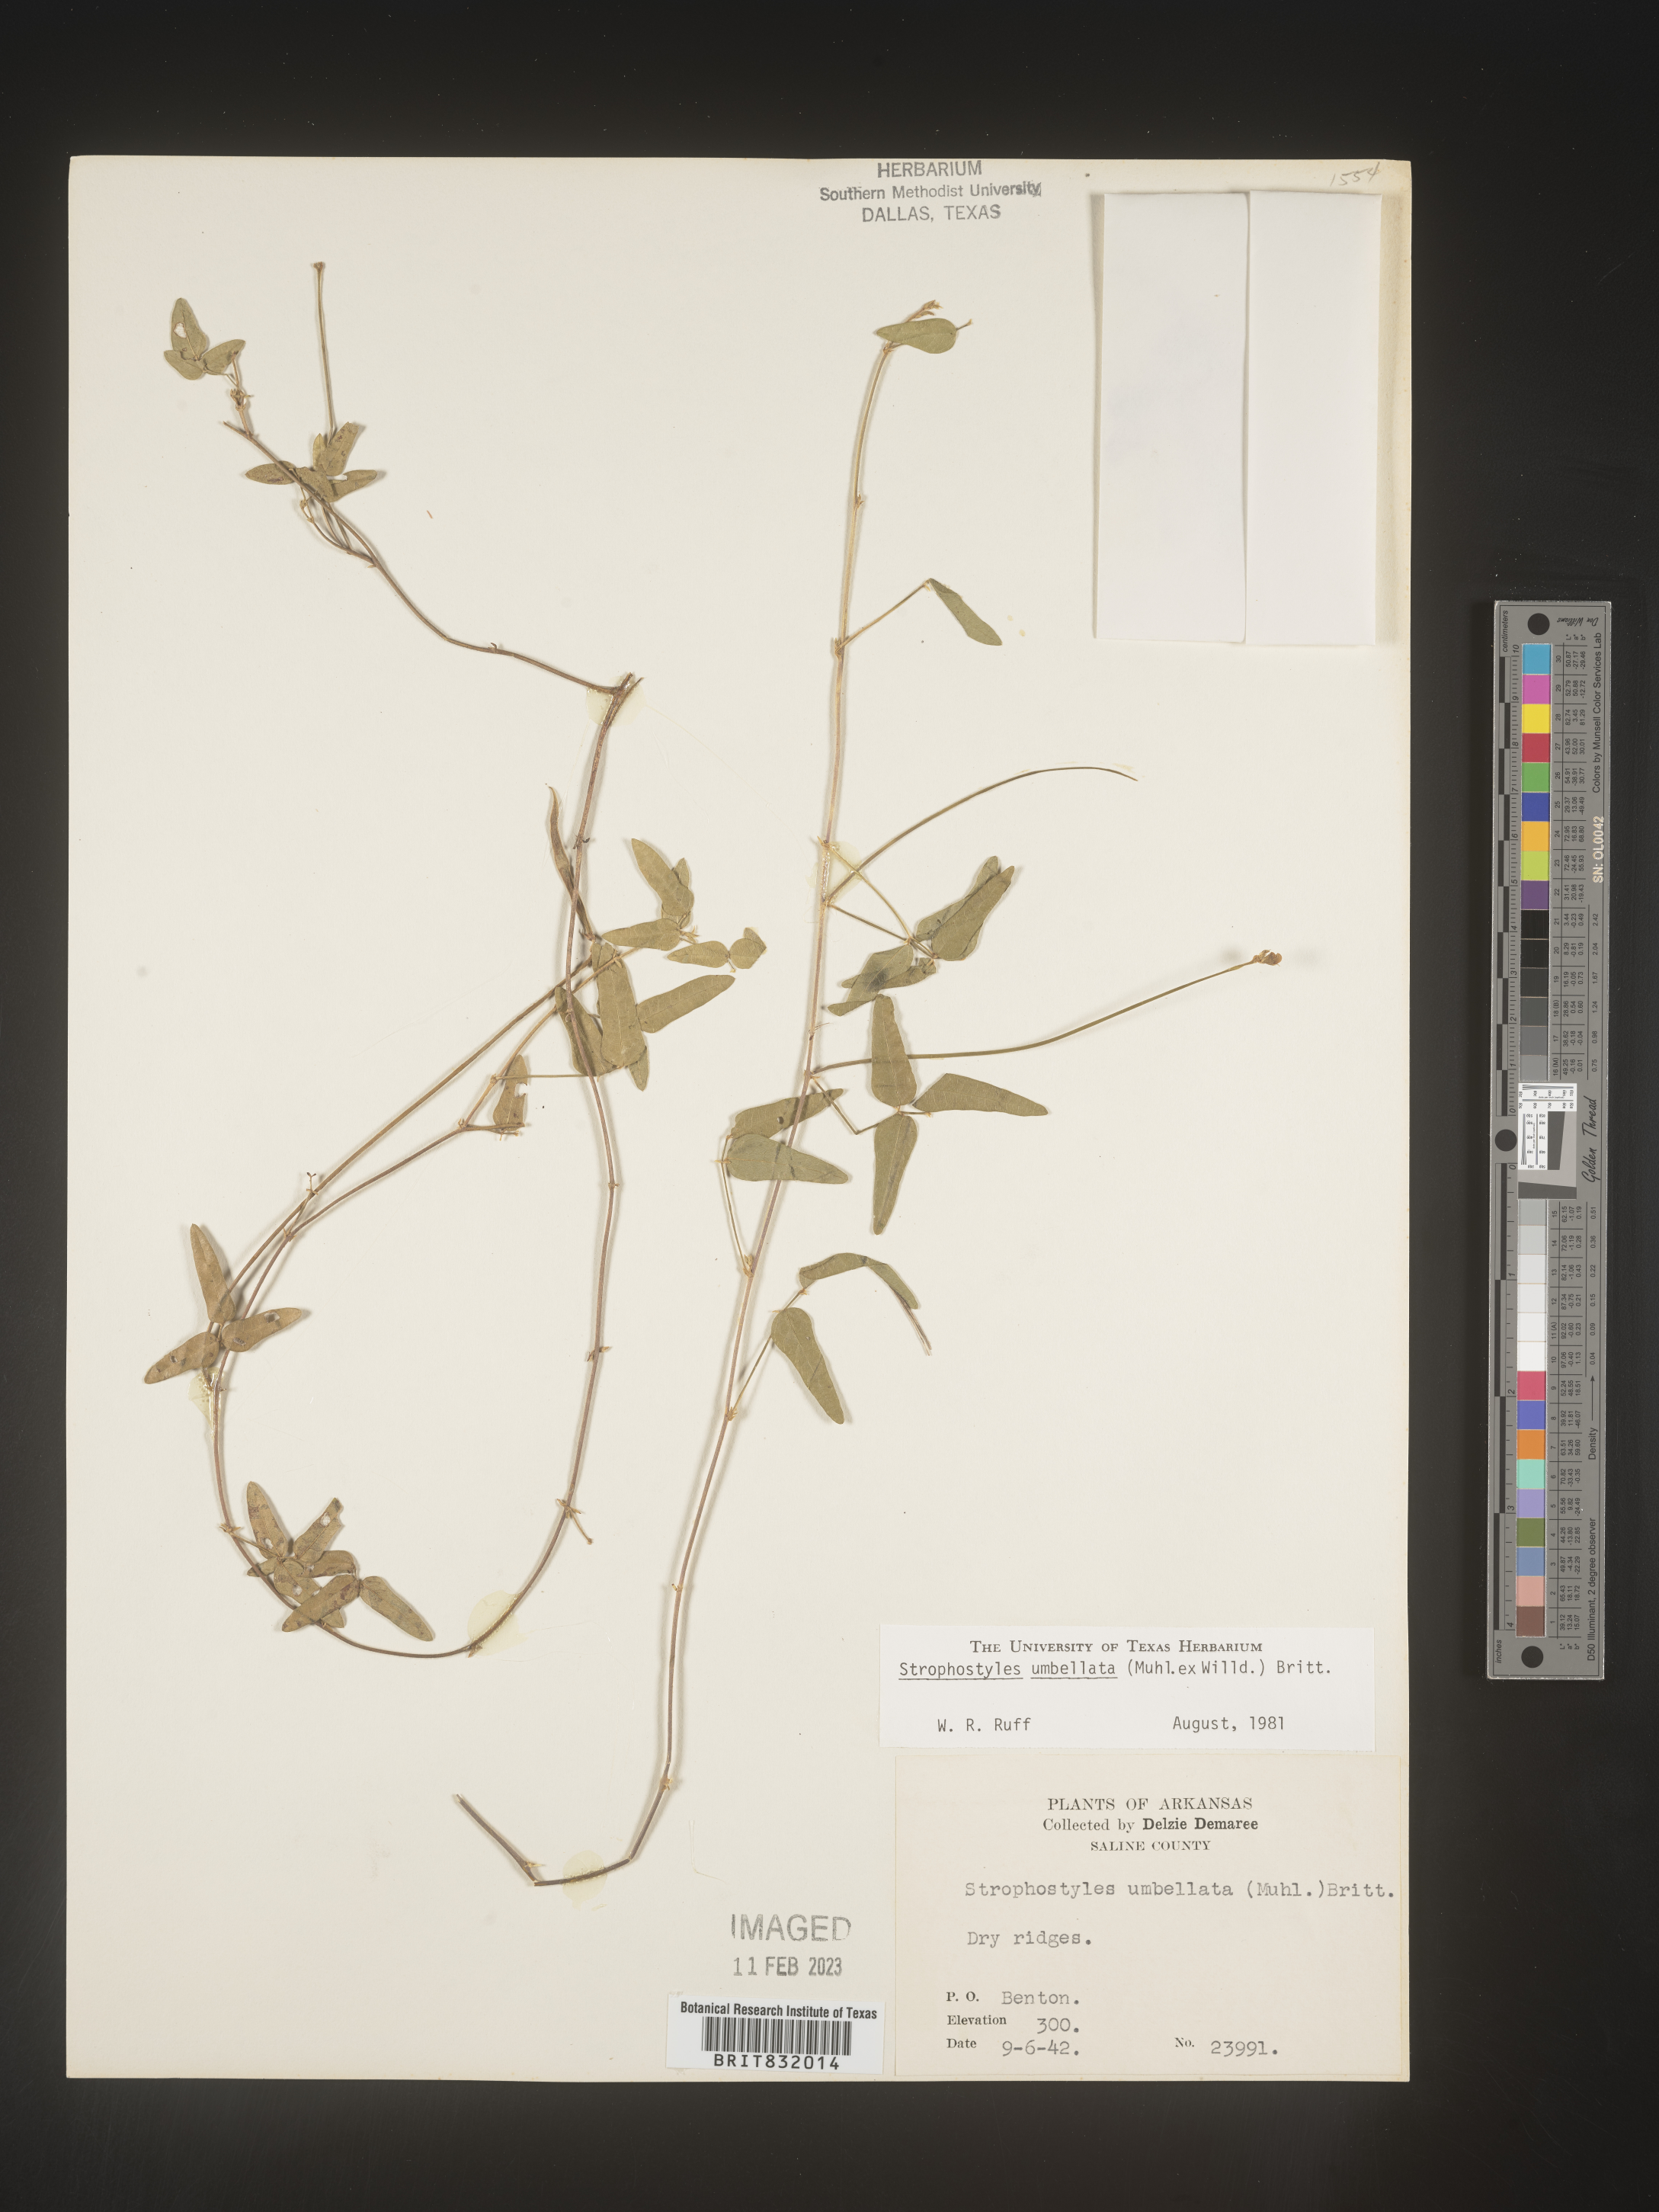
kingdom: Plantae
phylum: Tracheophyta
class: Magnoliopsida
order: Fabales
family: Fabaceae
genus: Strophostyles
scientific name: Strophostyles umbellata
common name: Perennial wild bean
